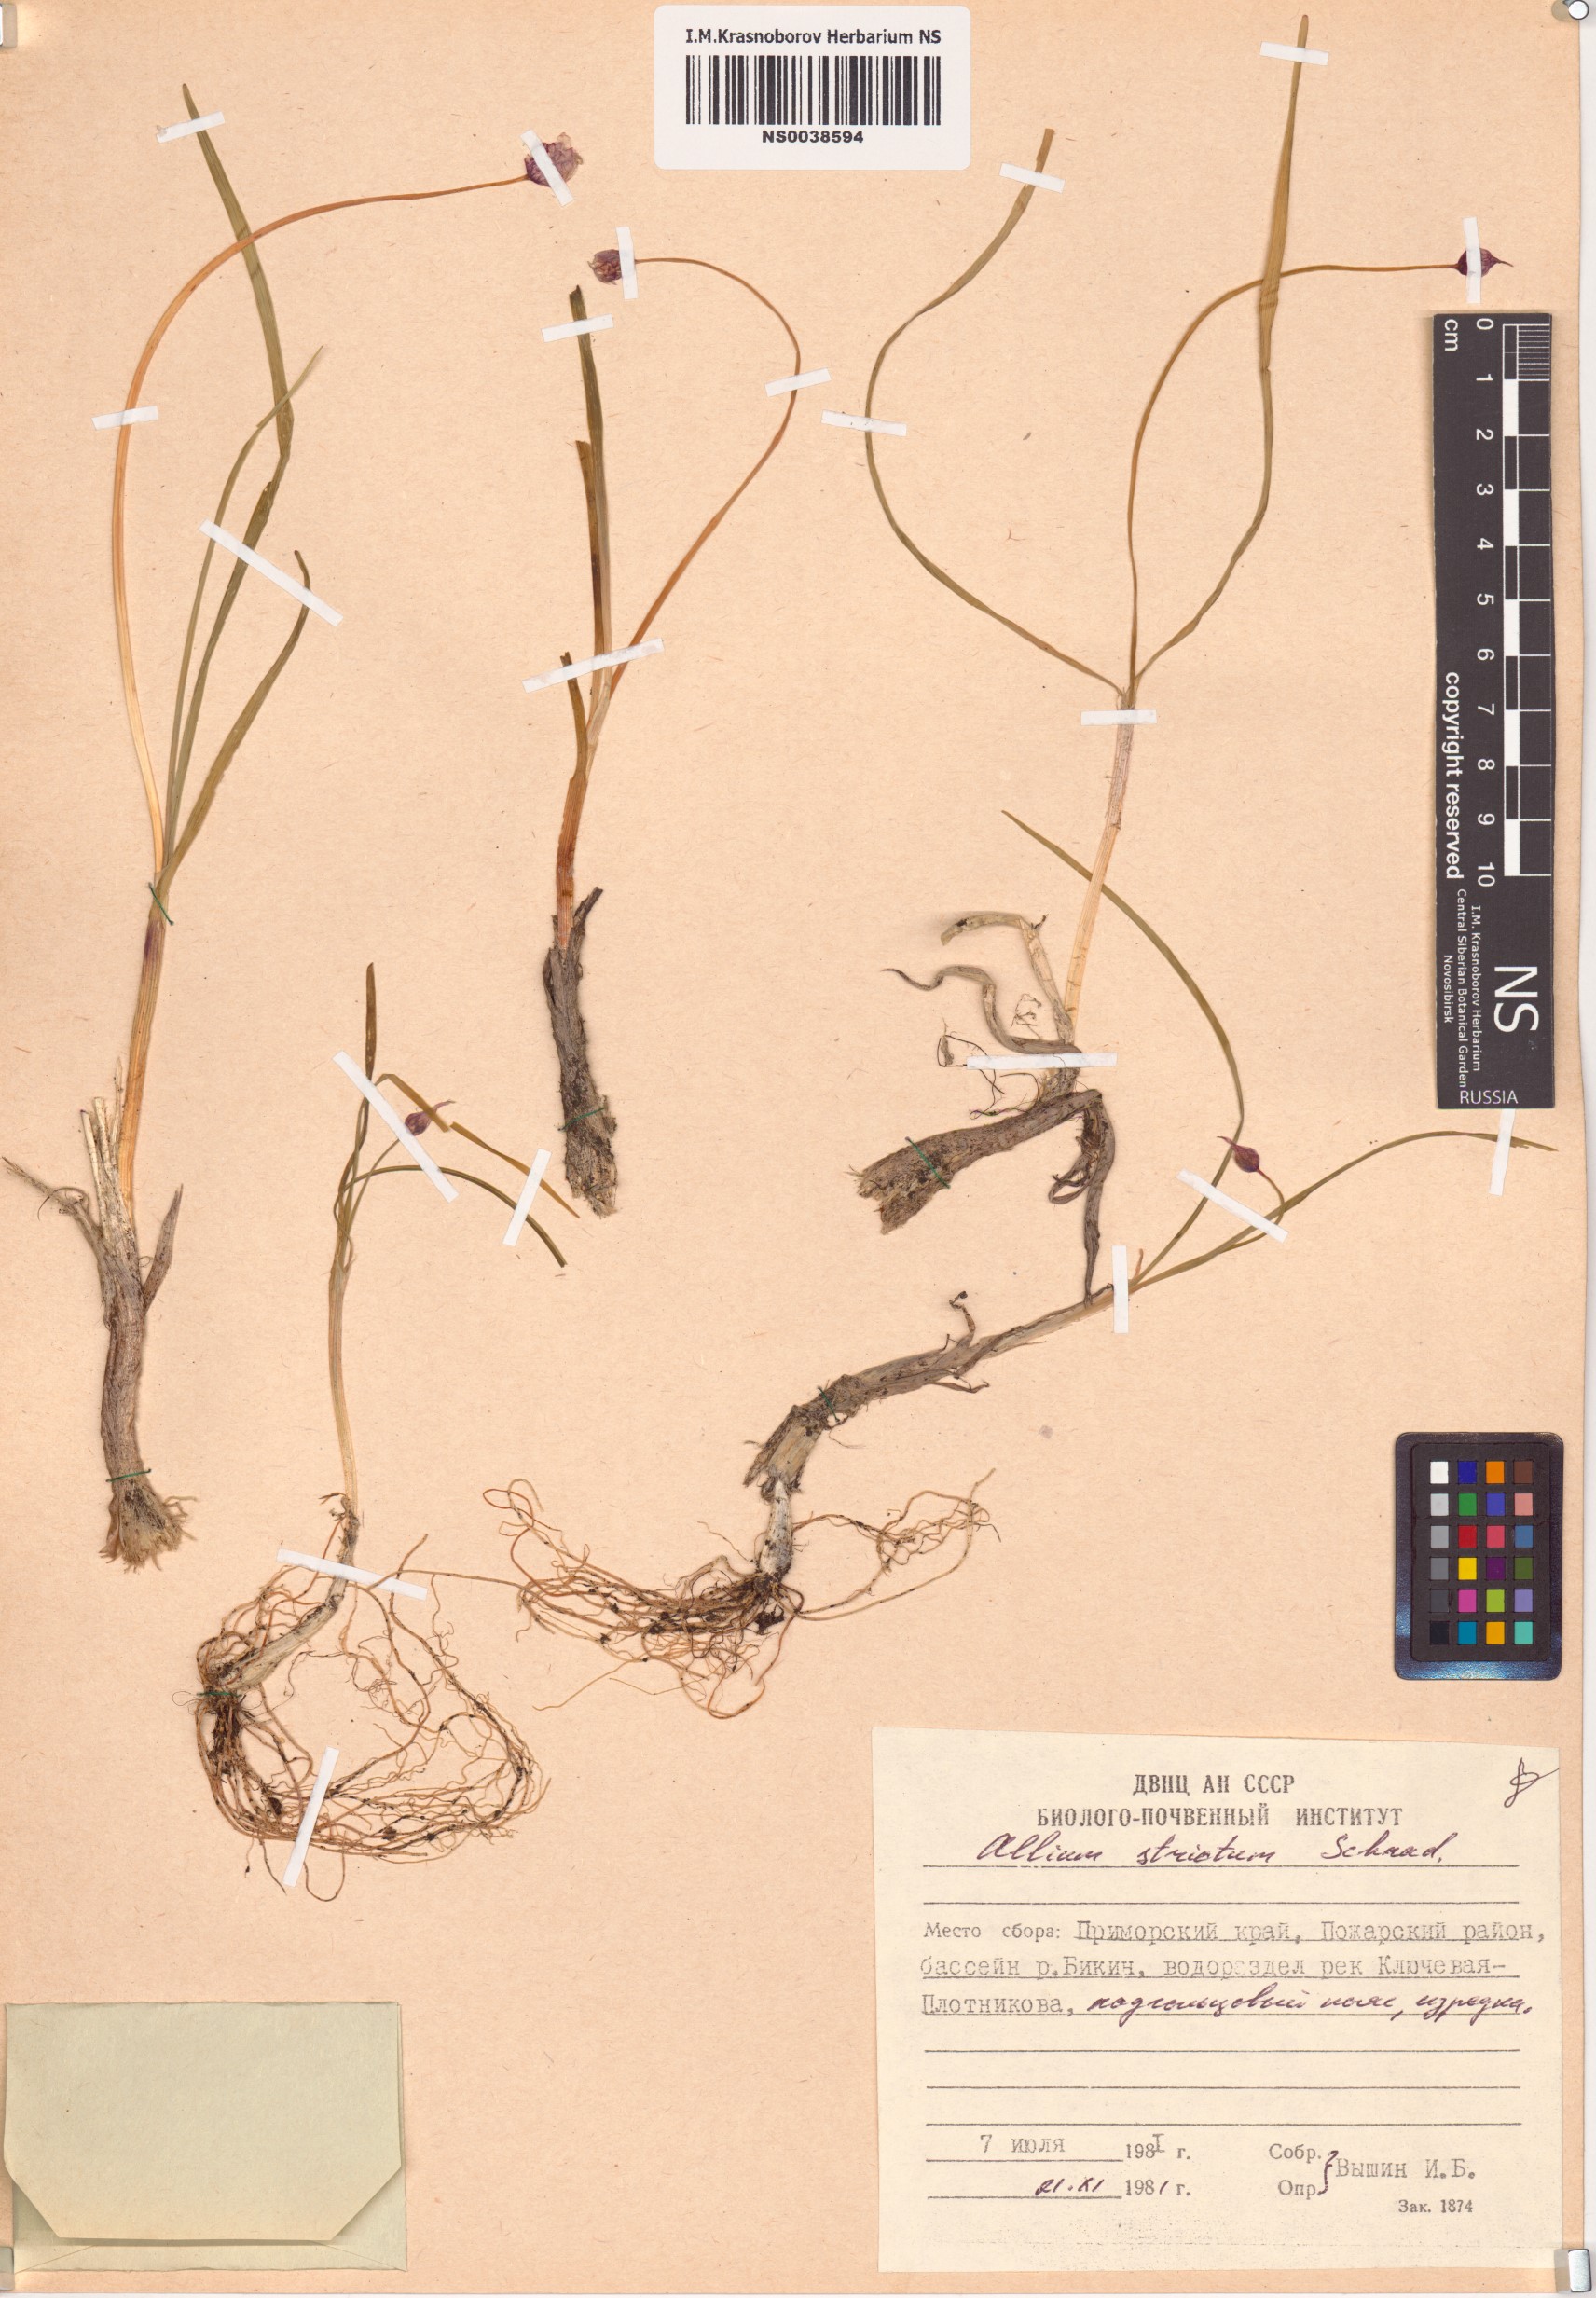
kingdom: Plantae
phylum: Tracheophyta
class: Liliopsida
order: Asparagales
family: Amaryllidaceae
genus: Allium
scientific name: Allium strictum
